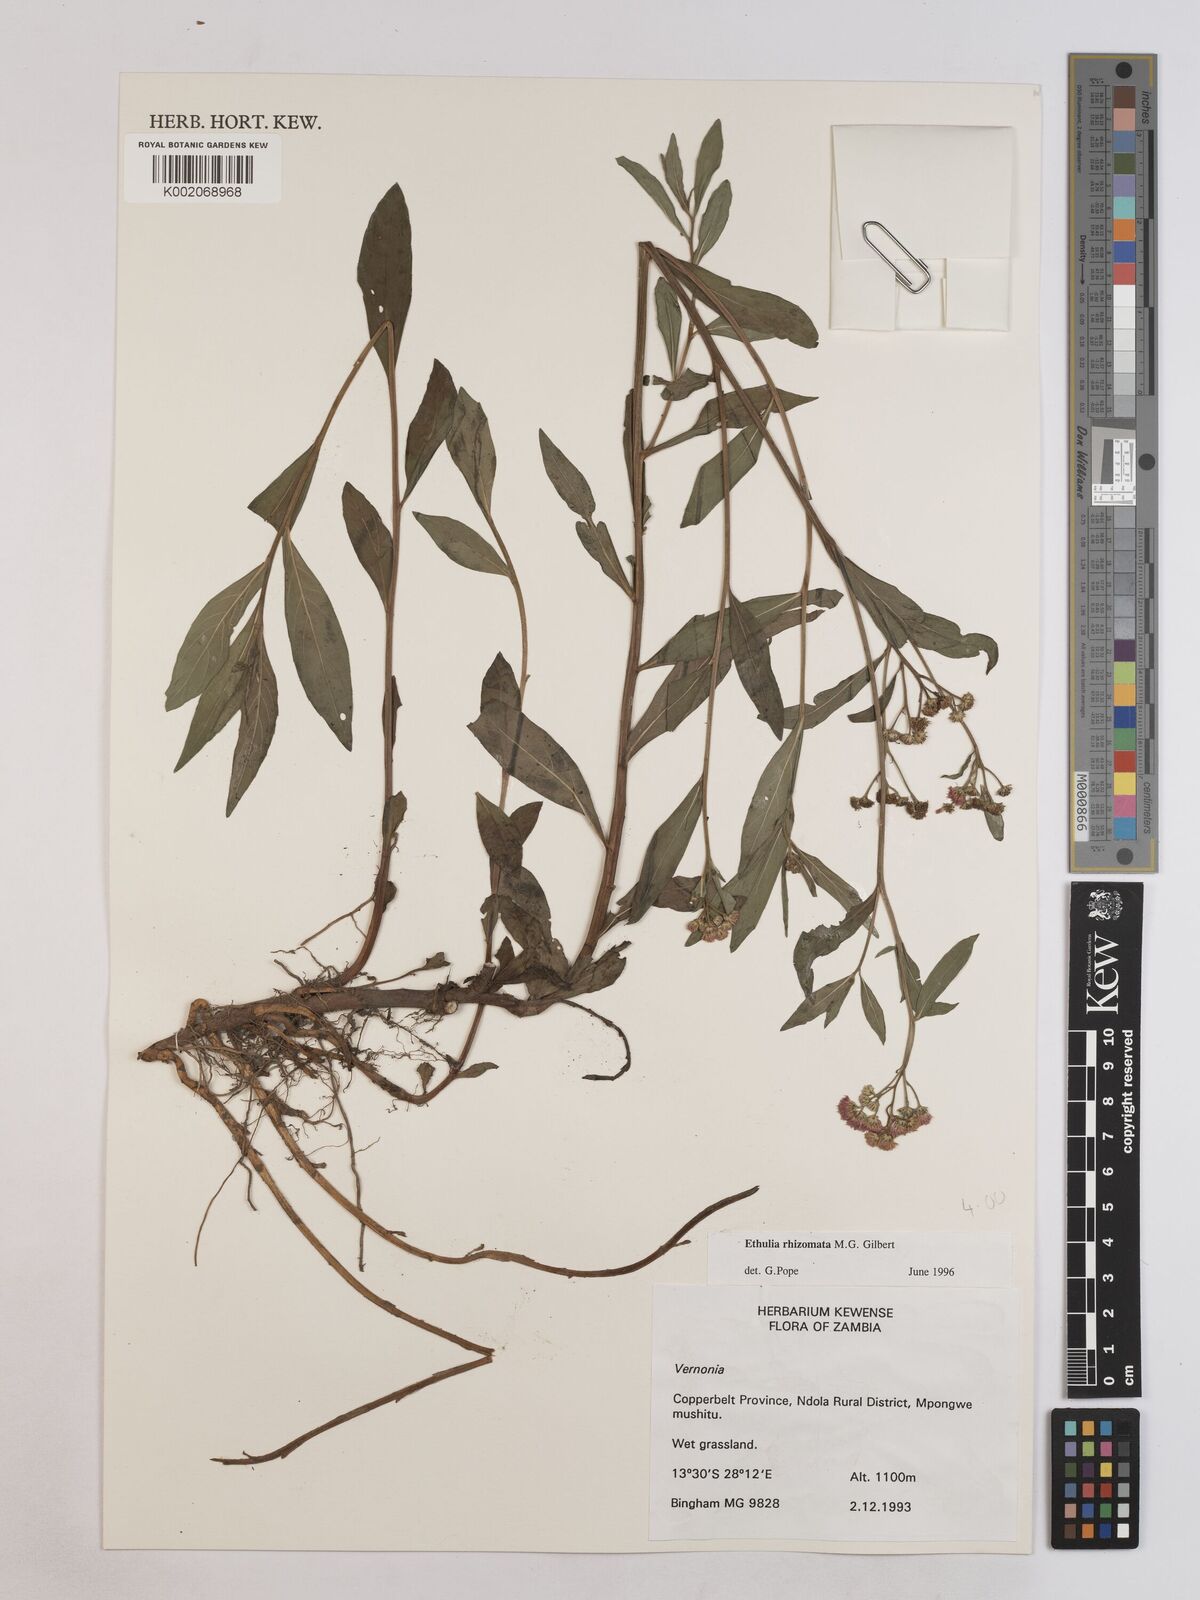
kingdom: Plantae
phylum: Tracheophyta
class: Magnoliopsida
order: Asterales
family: Asteraceae
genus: Ethulia
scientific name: Ethulia rhizomata
